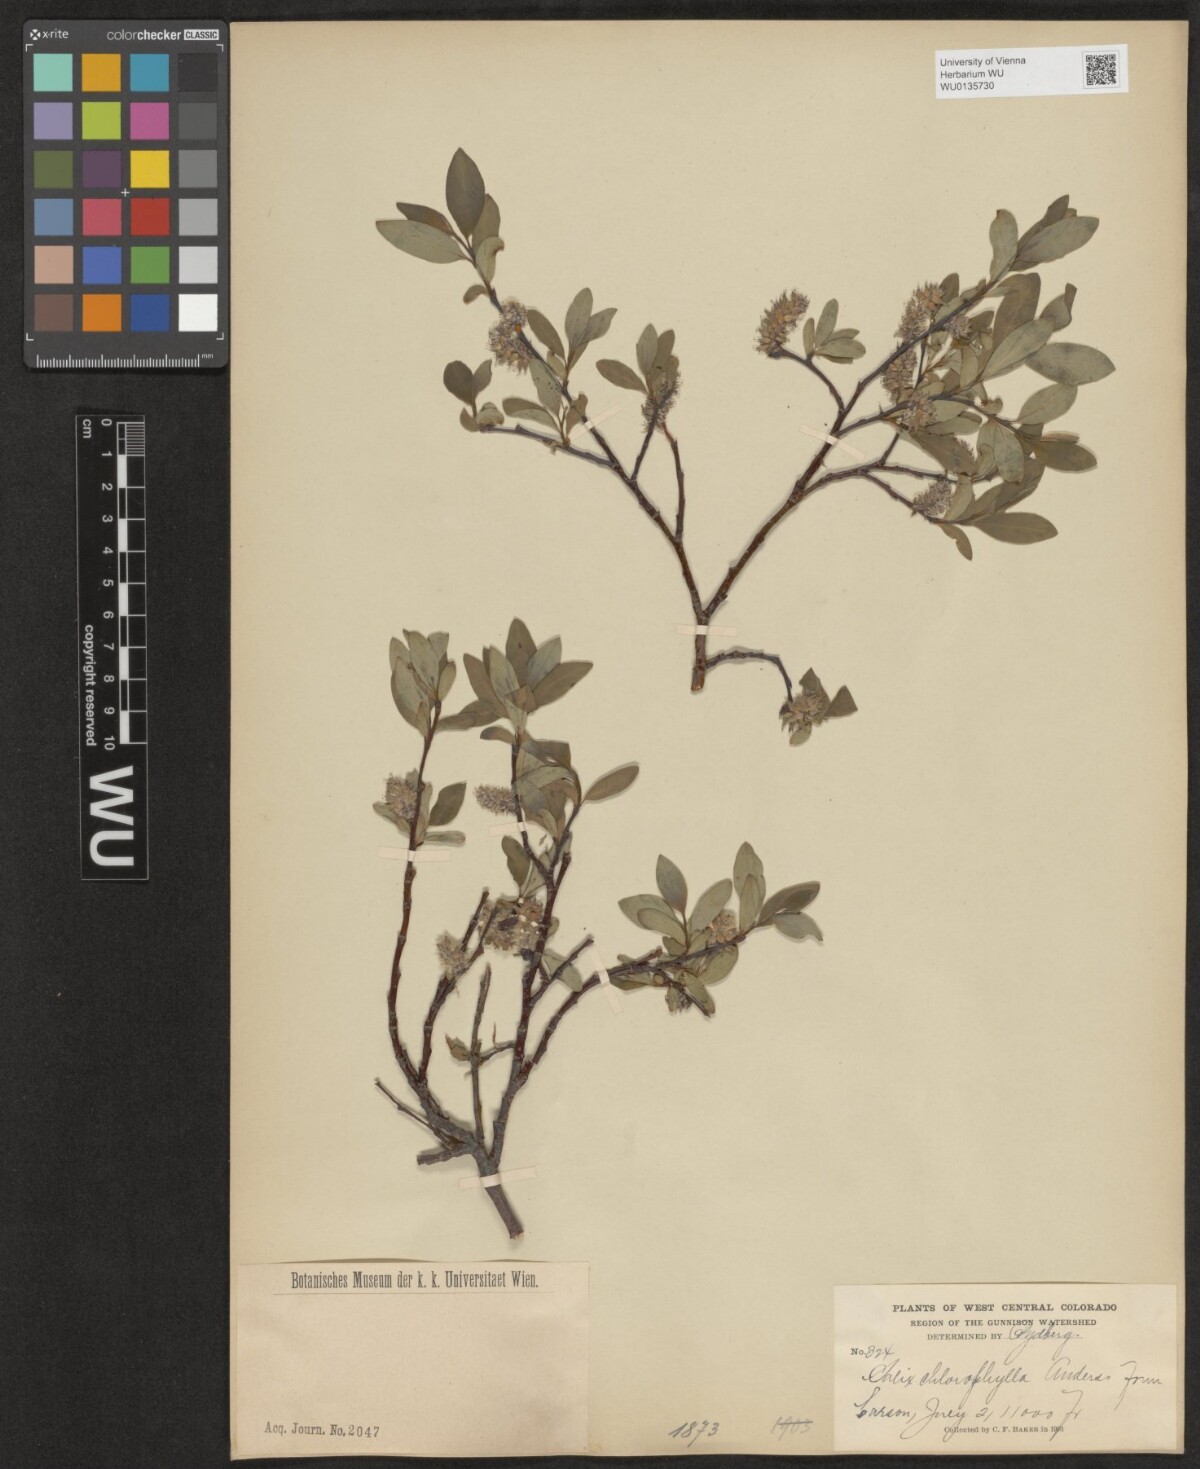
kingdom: Plantae
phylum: Tracheophyta
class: Magnoliopsida
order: Malpighiales
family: Salicaceae
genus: Salix
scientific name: Salix planifolia
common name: Mountain willow
